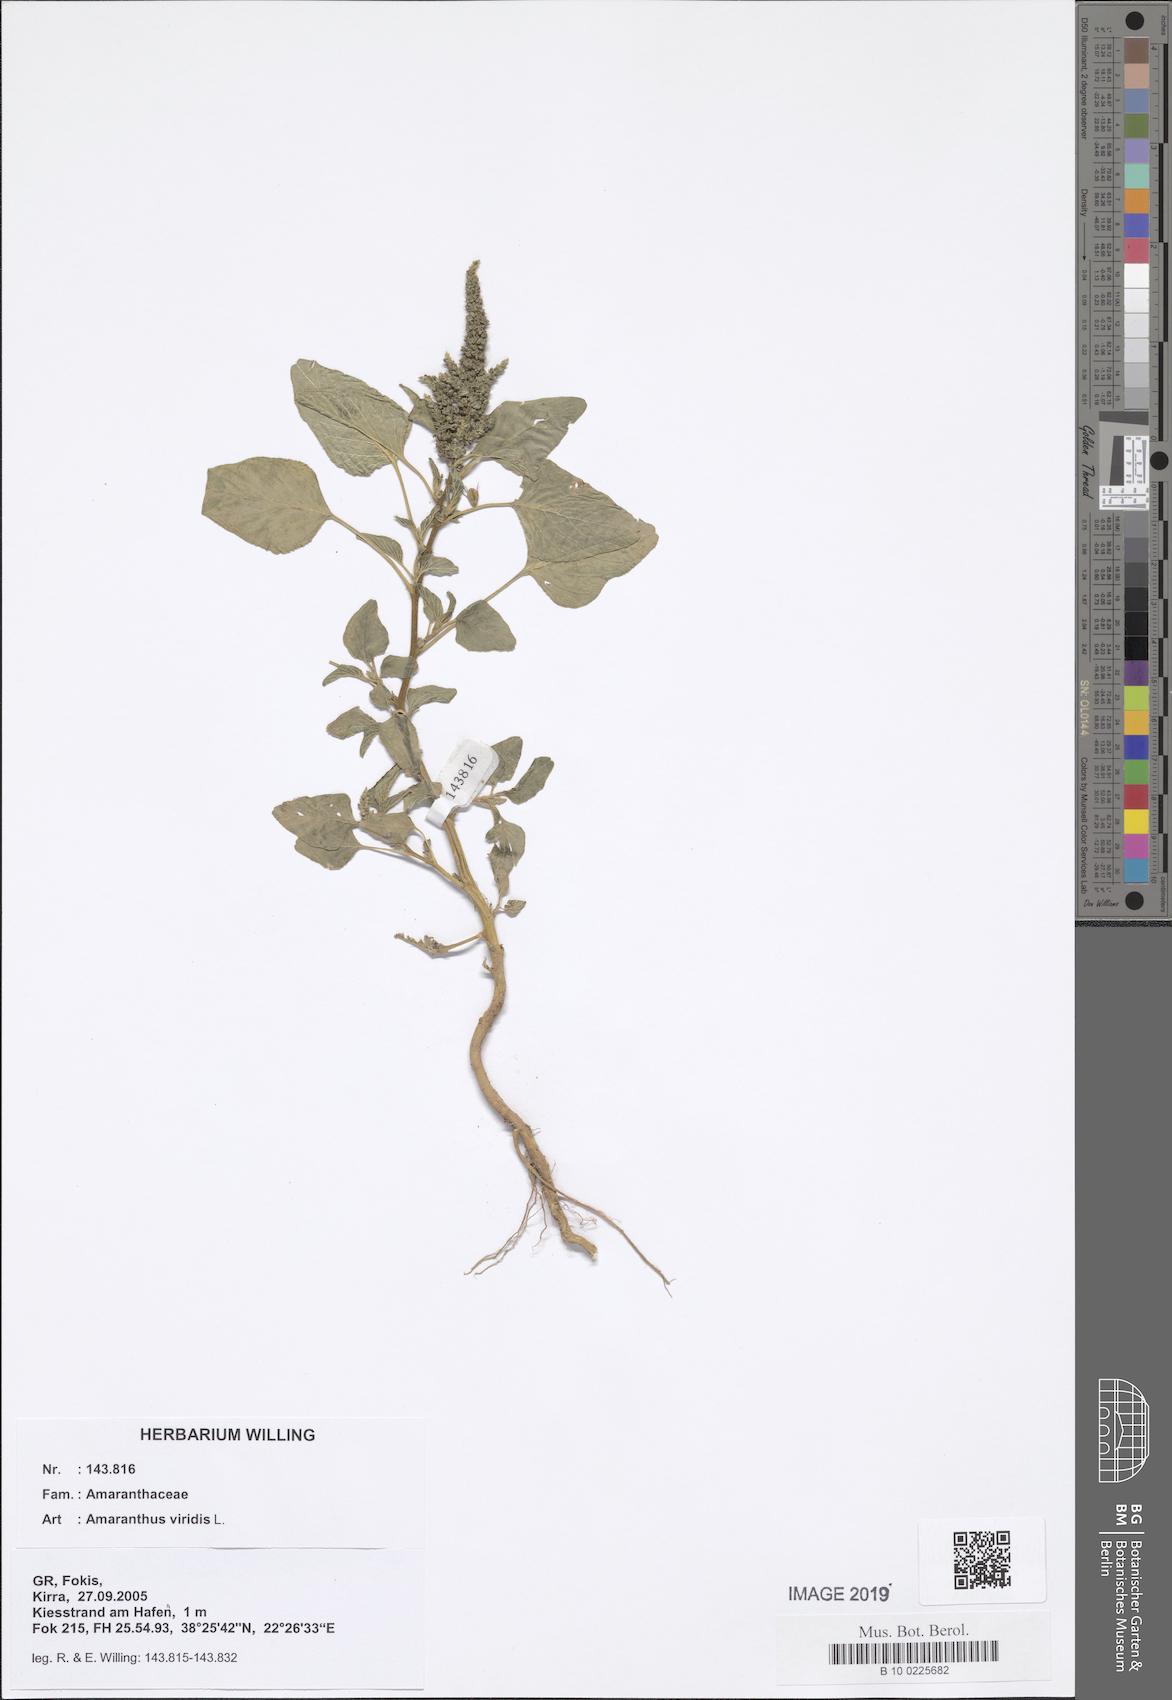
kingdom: Plantae
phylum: Tracheophyta
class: Magnoliopsida
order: Caryophyllales
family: Amaranthaceae
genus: Amaranthus
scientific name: Amaranthus viridis
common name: Slender amaranth
